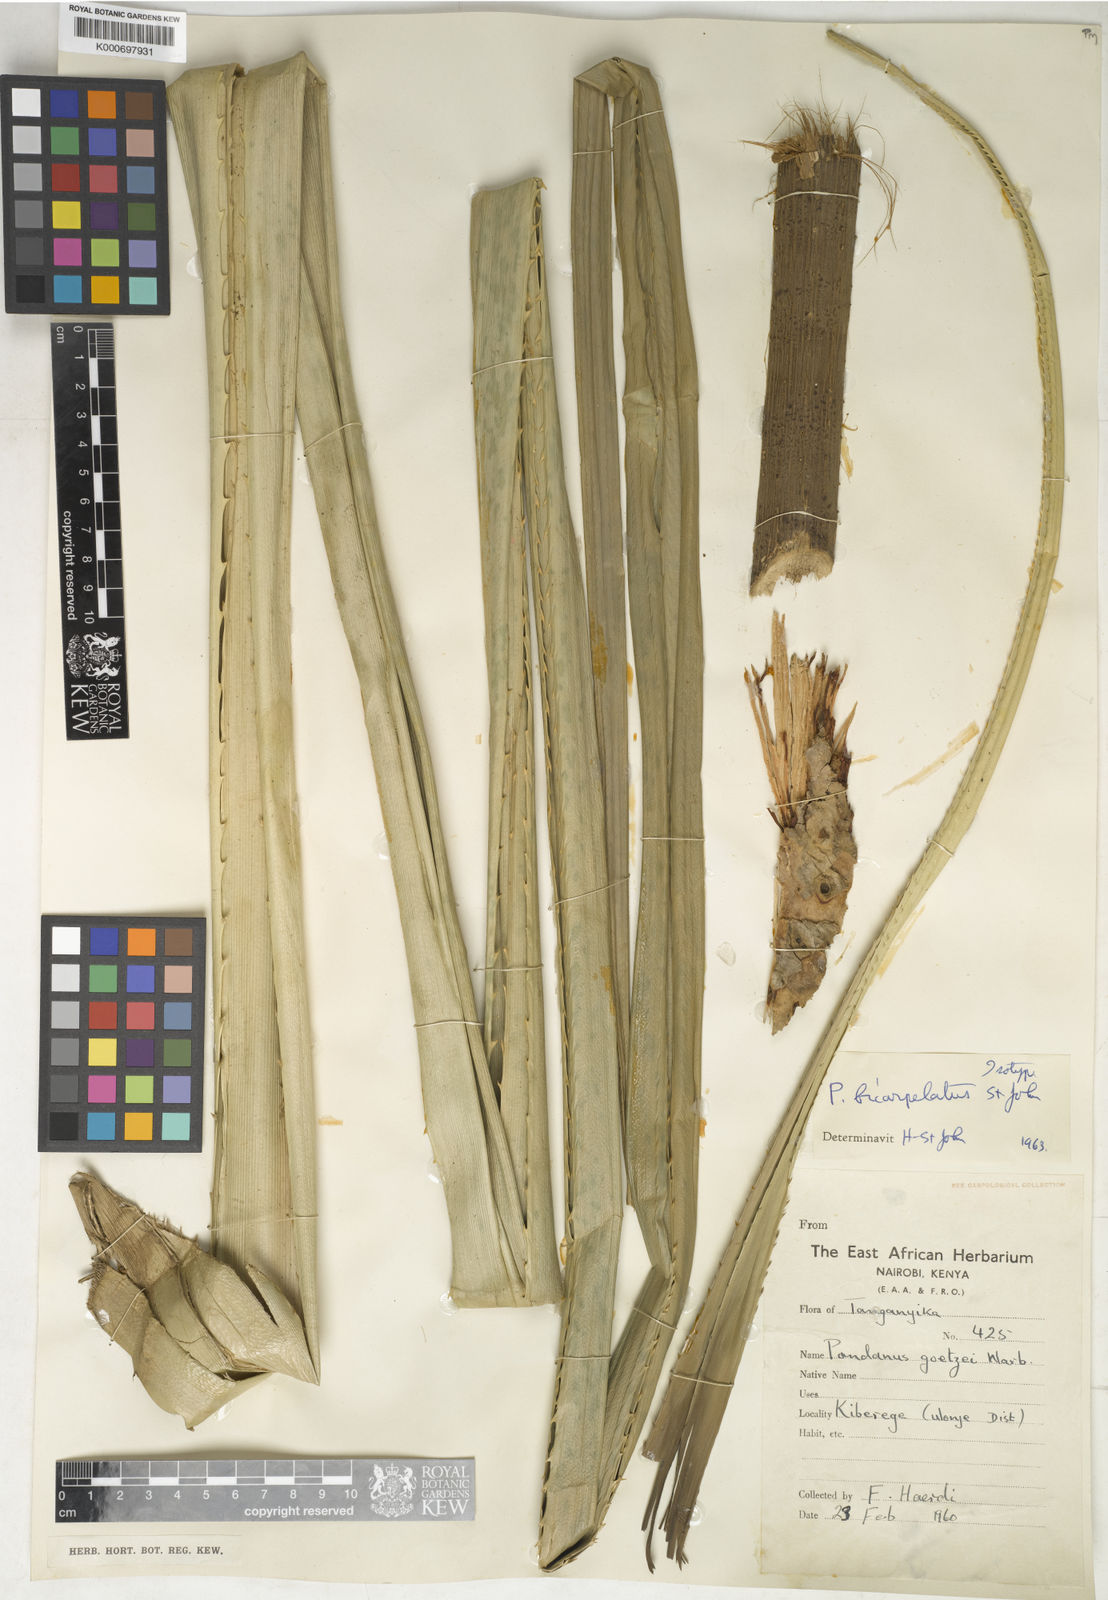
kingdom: Plantae
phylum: Tracheophyta
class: Liliopsida
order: Pandanales
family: Pandanaceae
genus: Pandanus
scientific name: Pandanus
